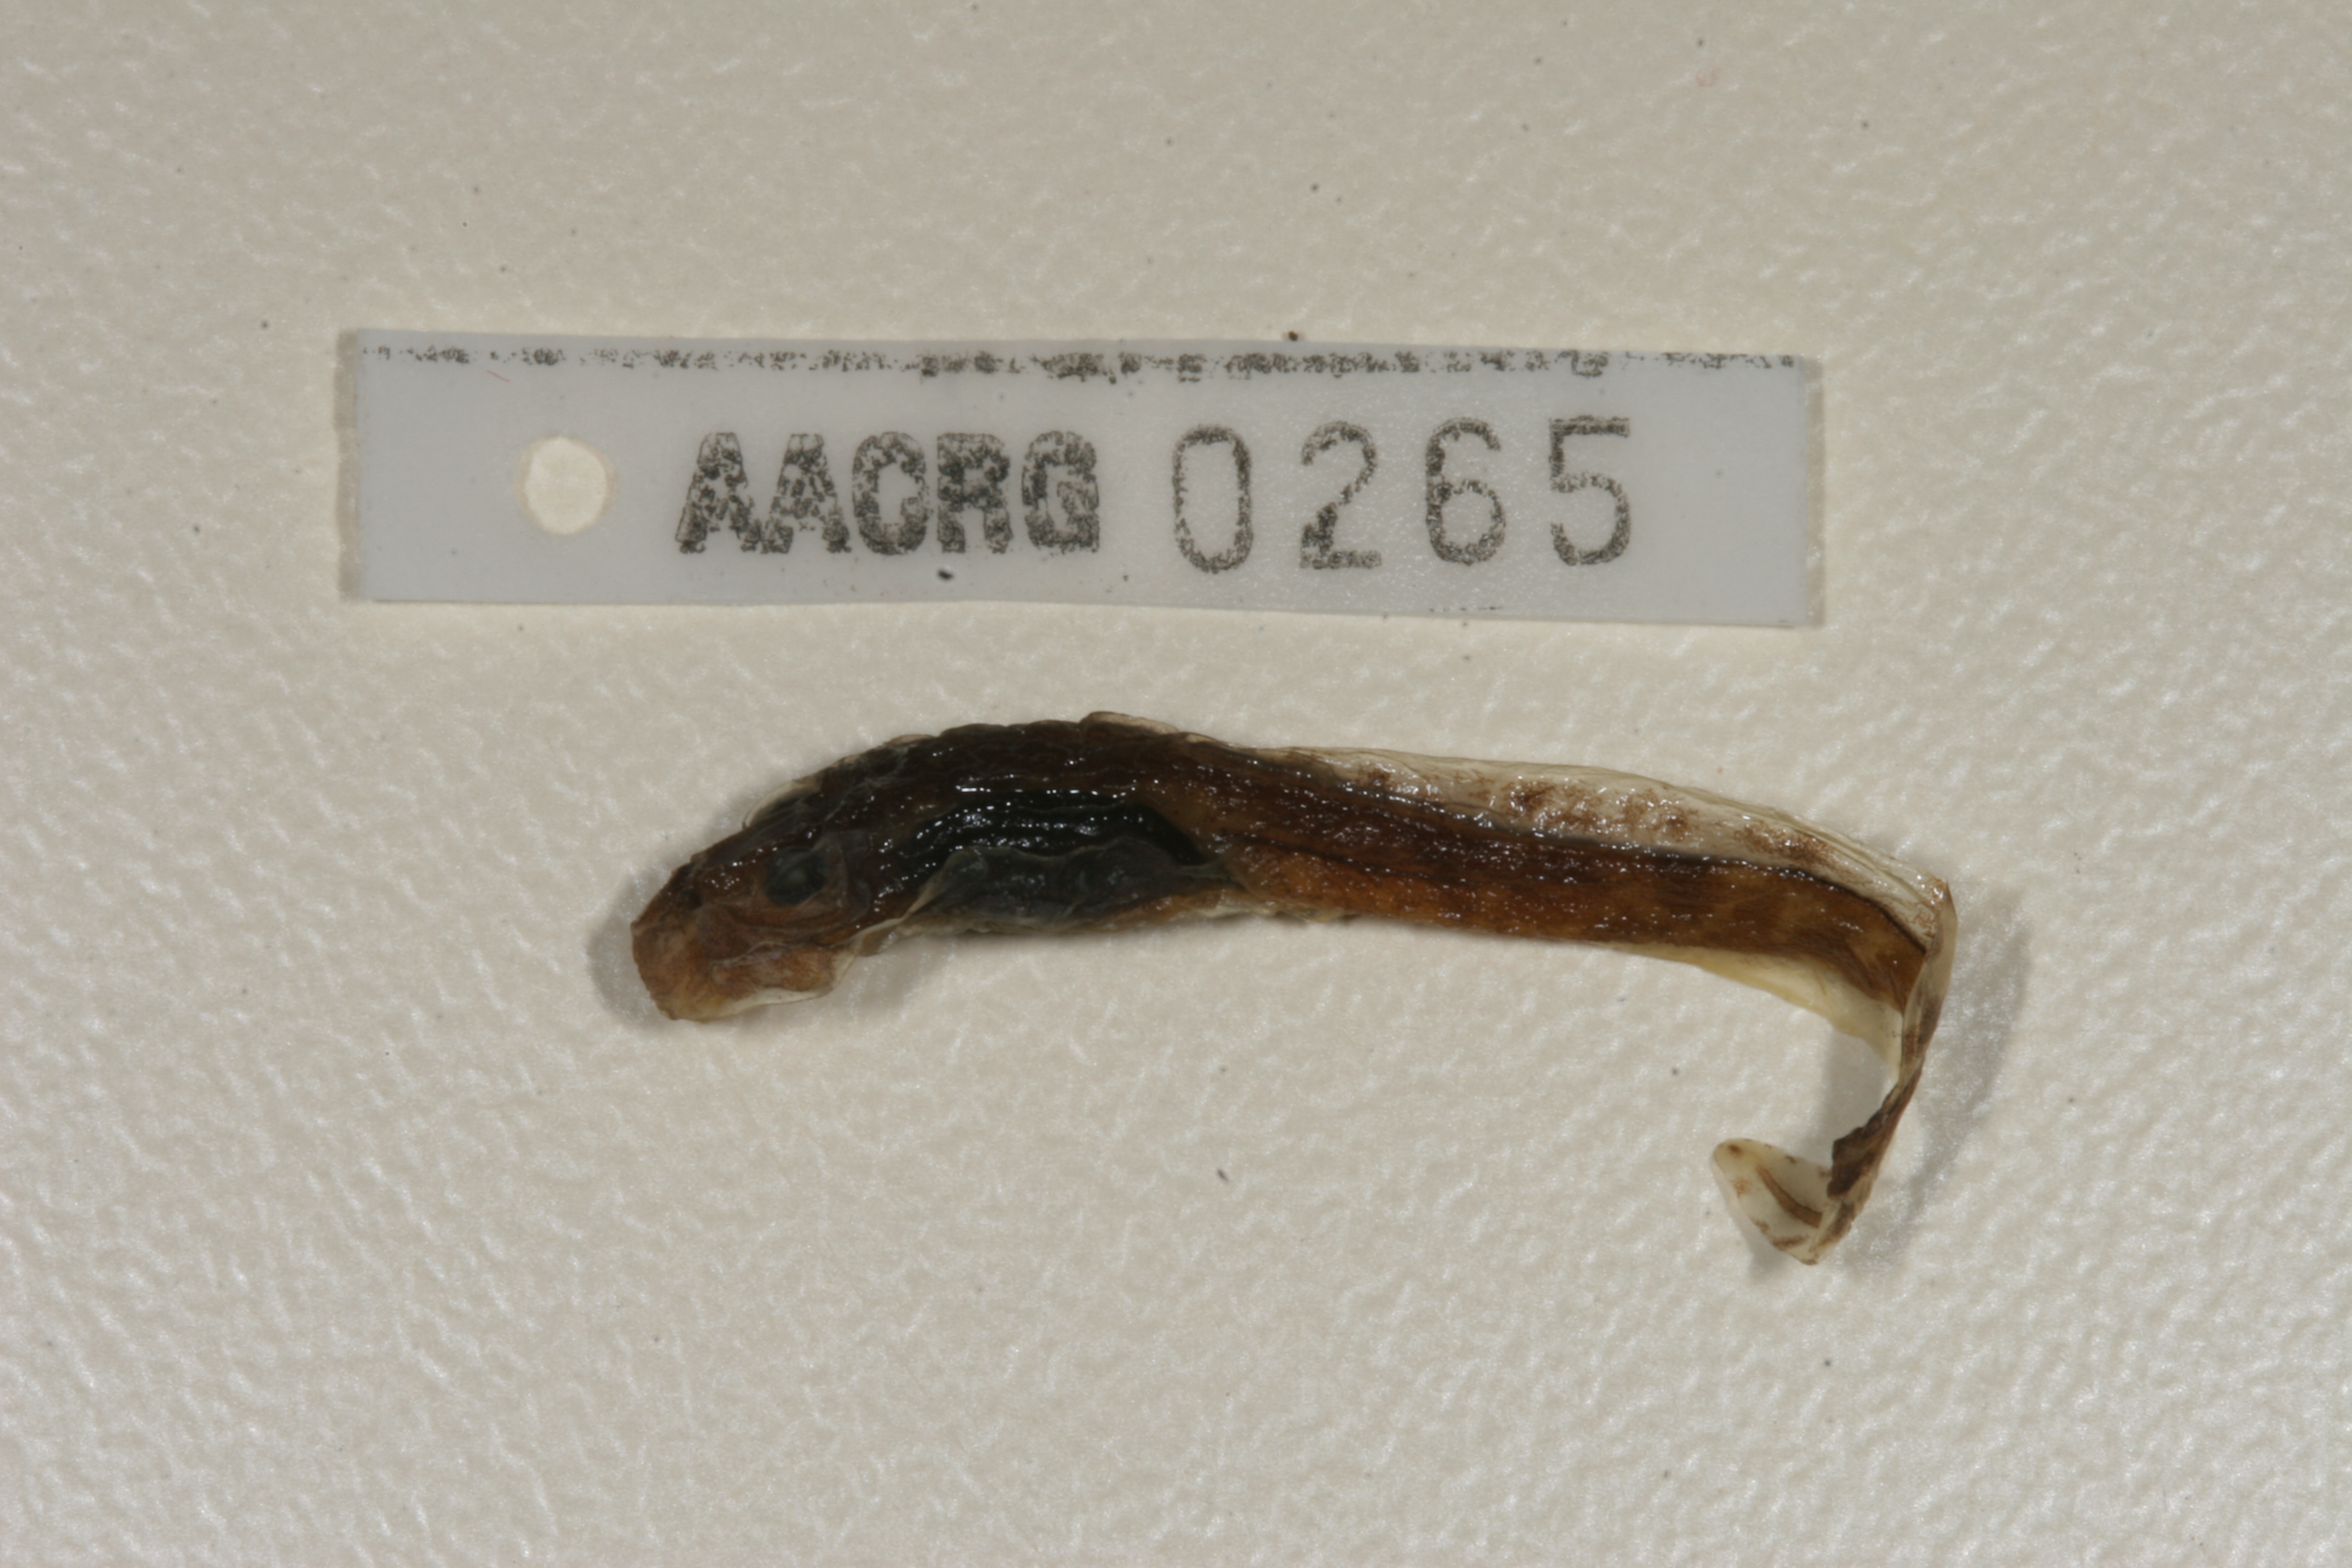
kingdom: Animalia
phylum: Chordata
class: Amphibia
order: Anura
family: Pyxicephalidae
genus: Amietia
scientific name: Amietia fuscigula
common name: Cape rana
